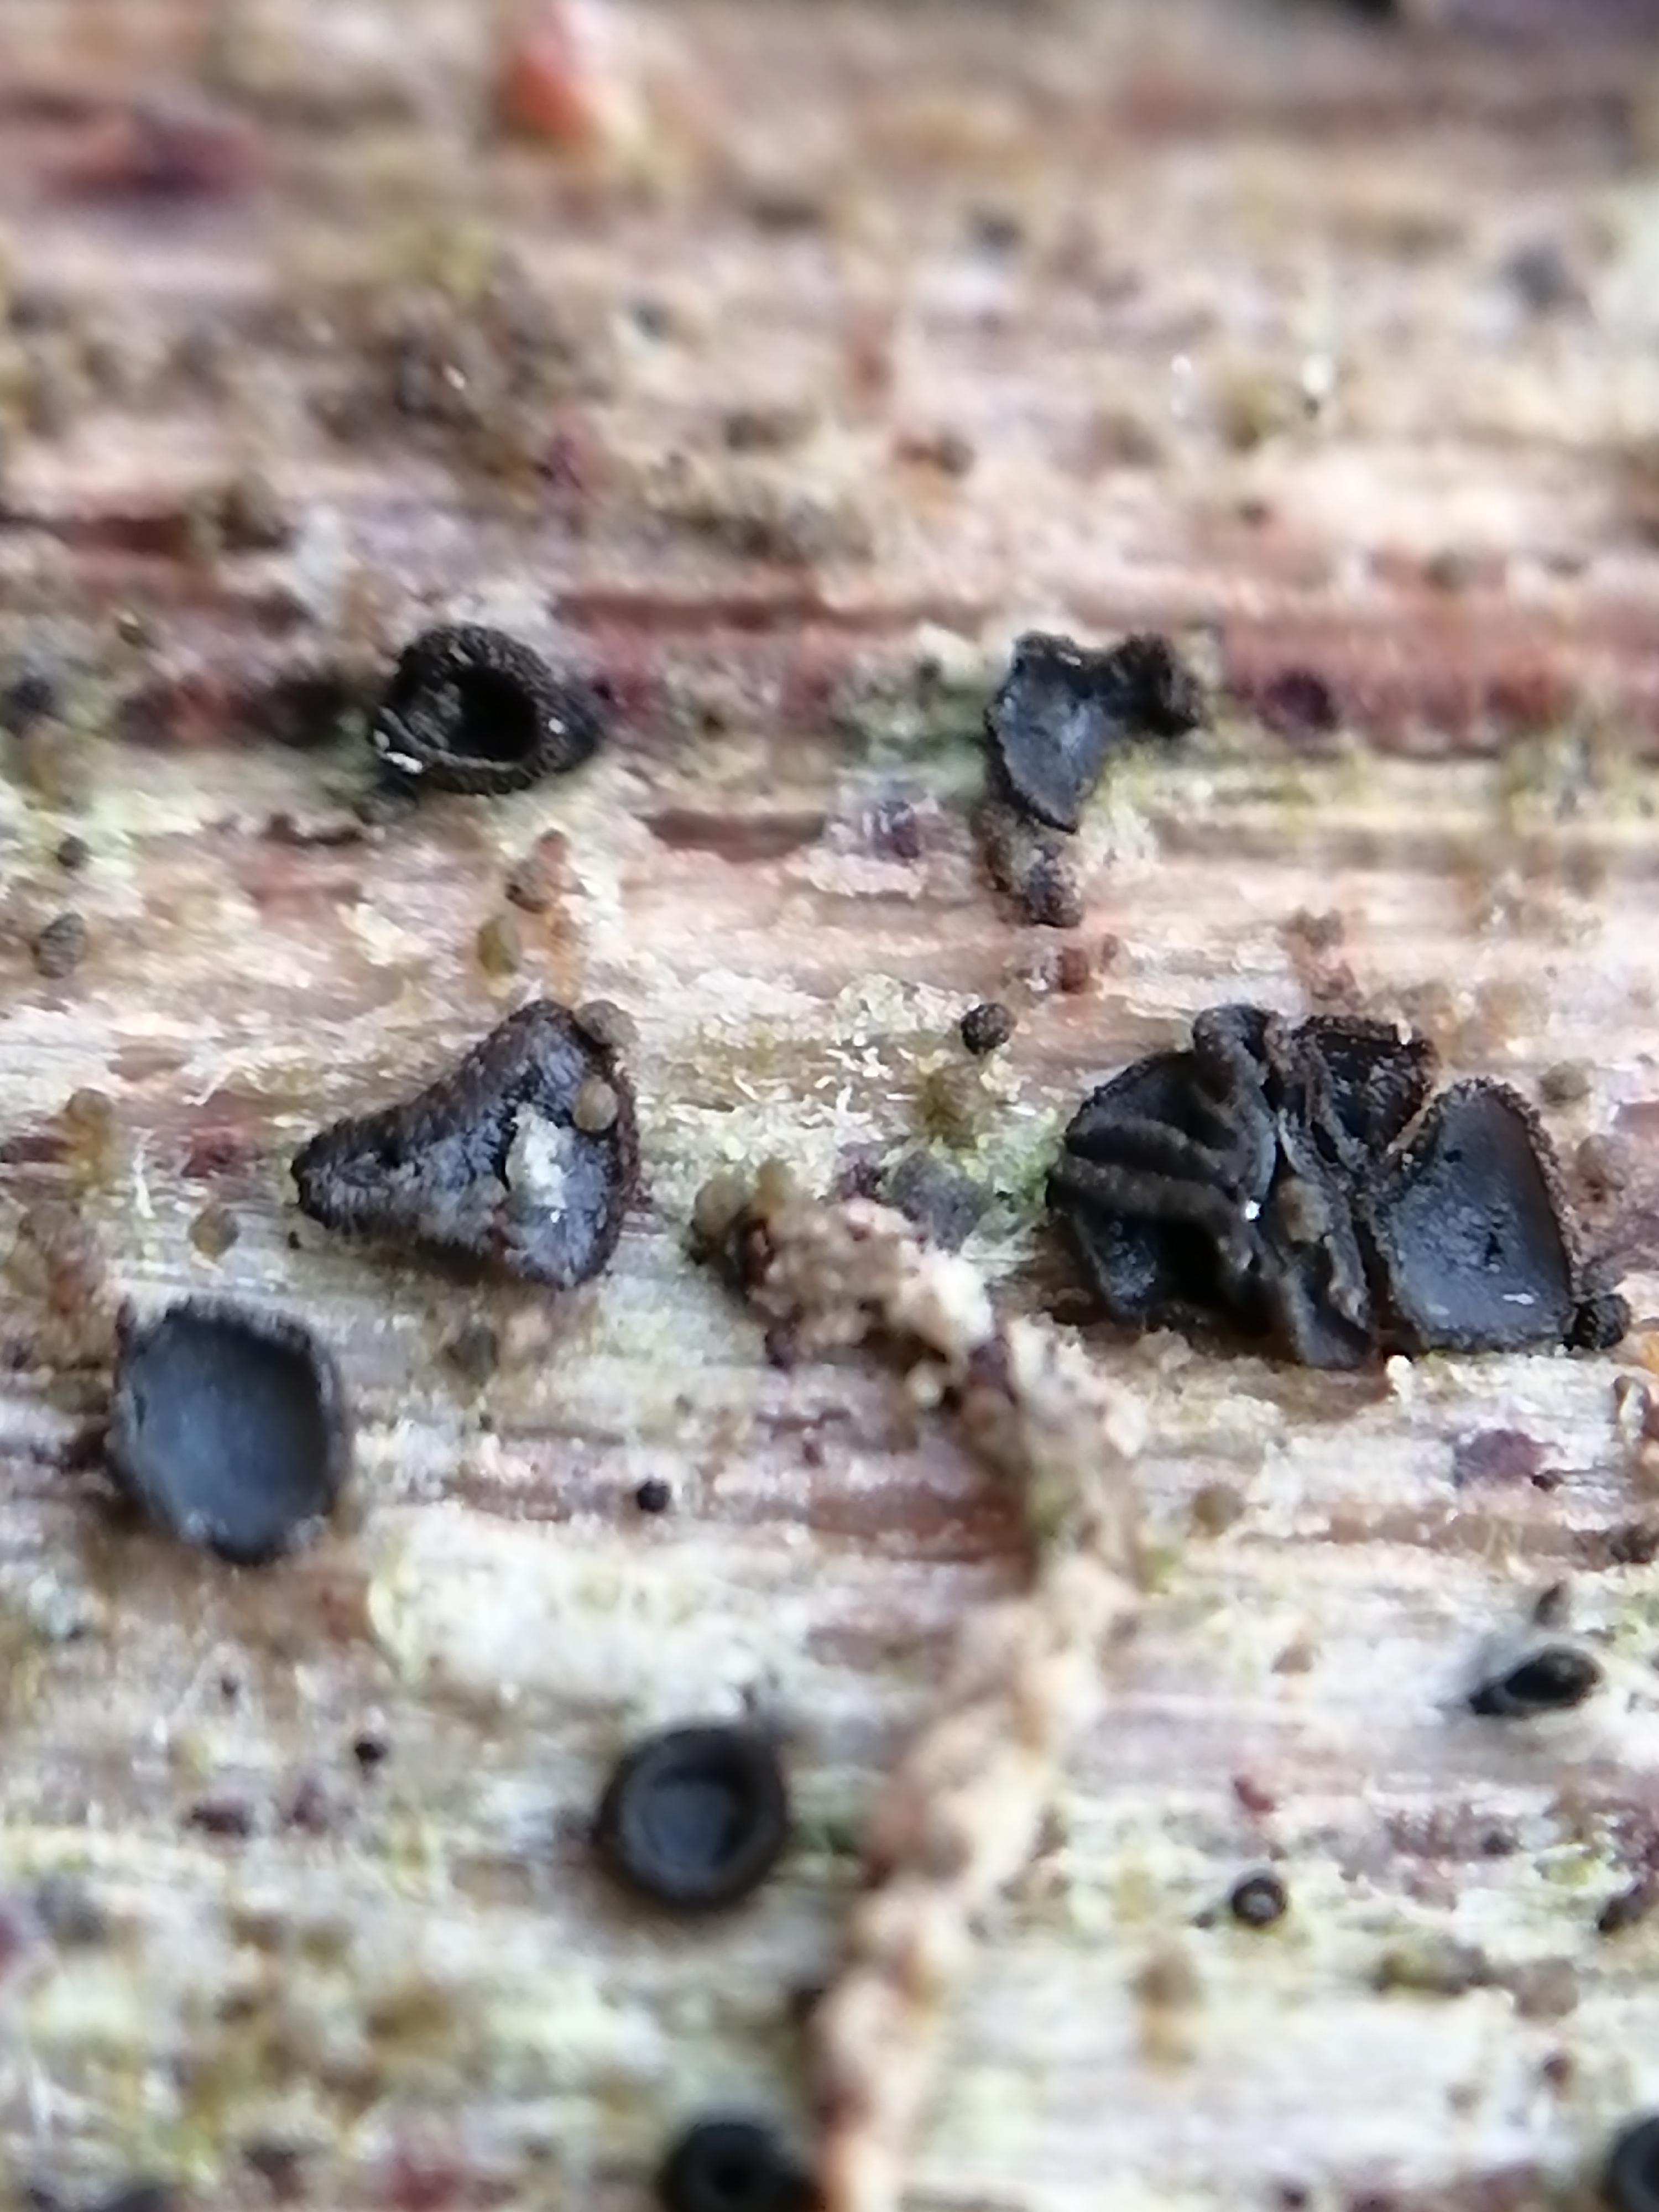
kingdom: Fungi
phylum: Ascomycota
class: Leotiomycetes
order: Helotiales
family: Mollisiaceae
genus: Mollisia
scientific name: Mollisia ligni
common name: ved-gråskive
